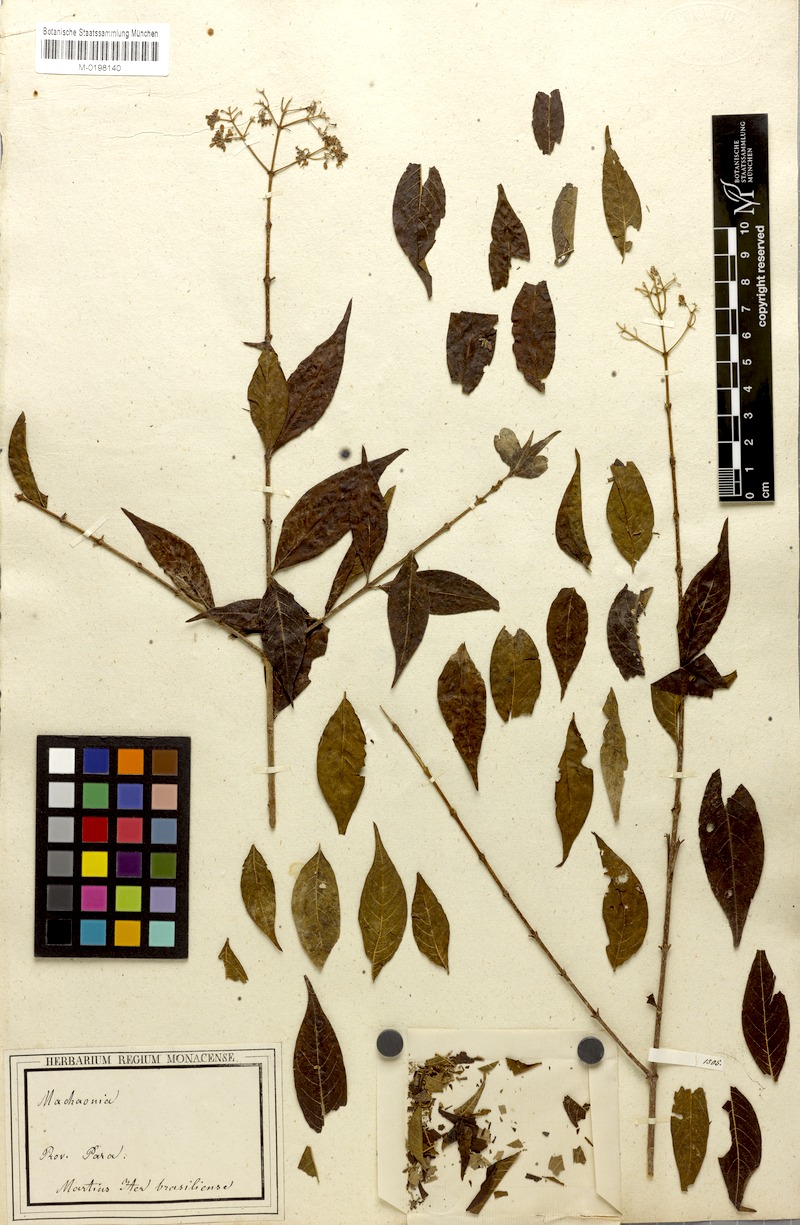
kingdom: Plantae
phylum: Tracheophyta
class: Magnoliopsida
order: Gentianales
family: Rubiaceae
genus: Machaonia
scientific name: Machaonia brasiliensis
